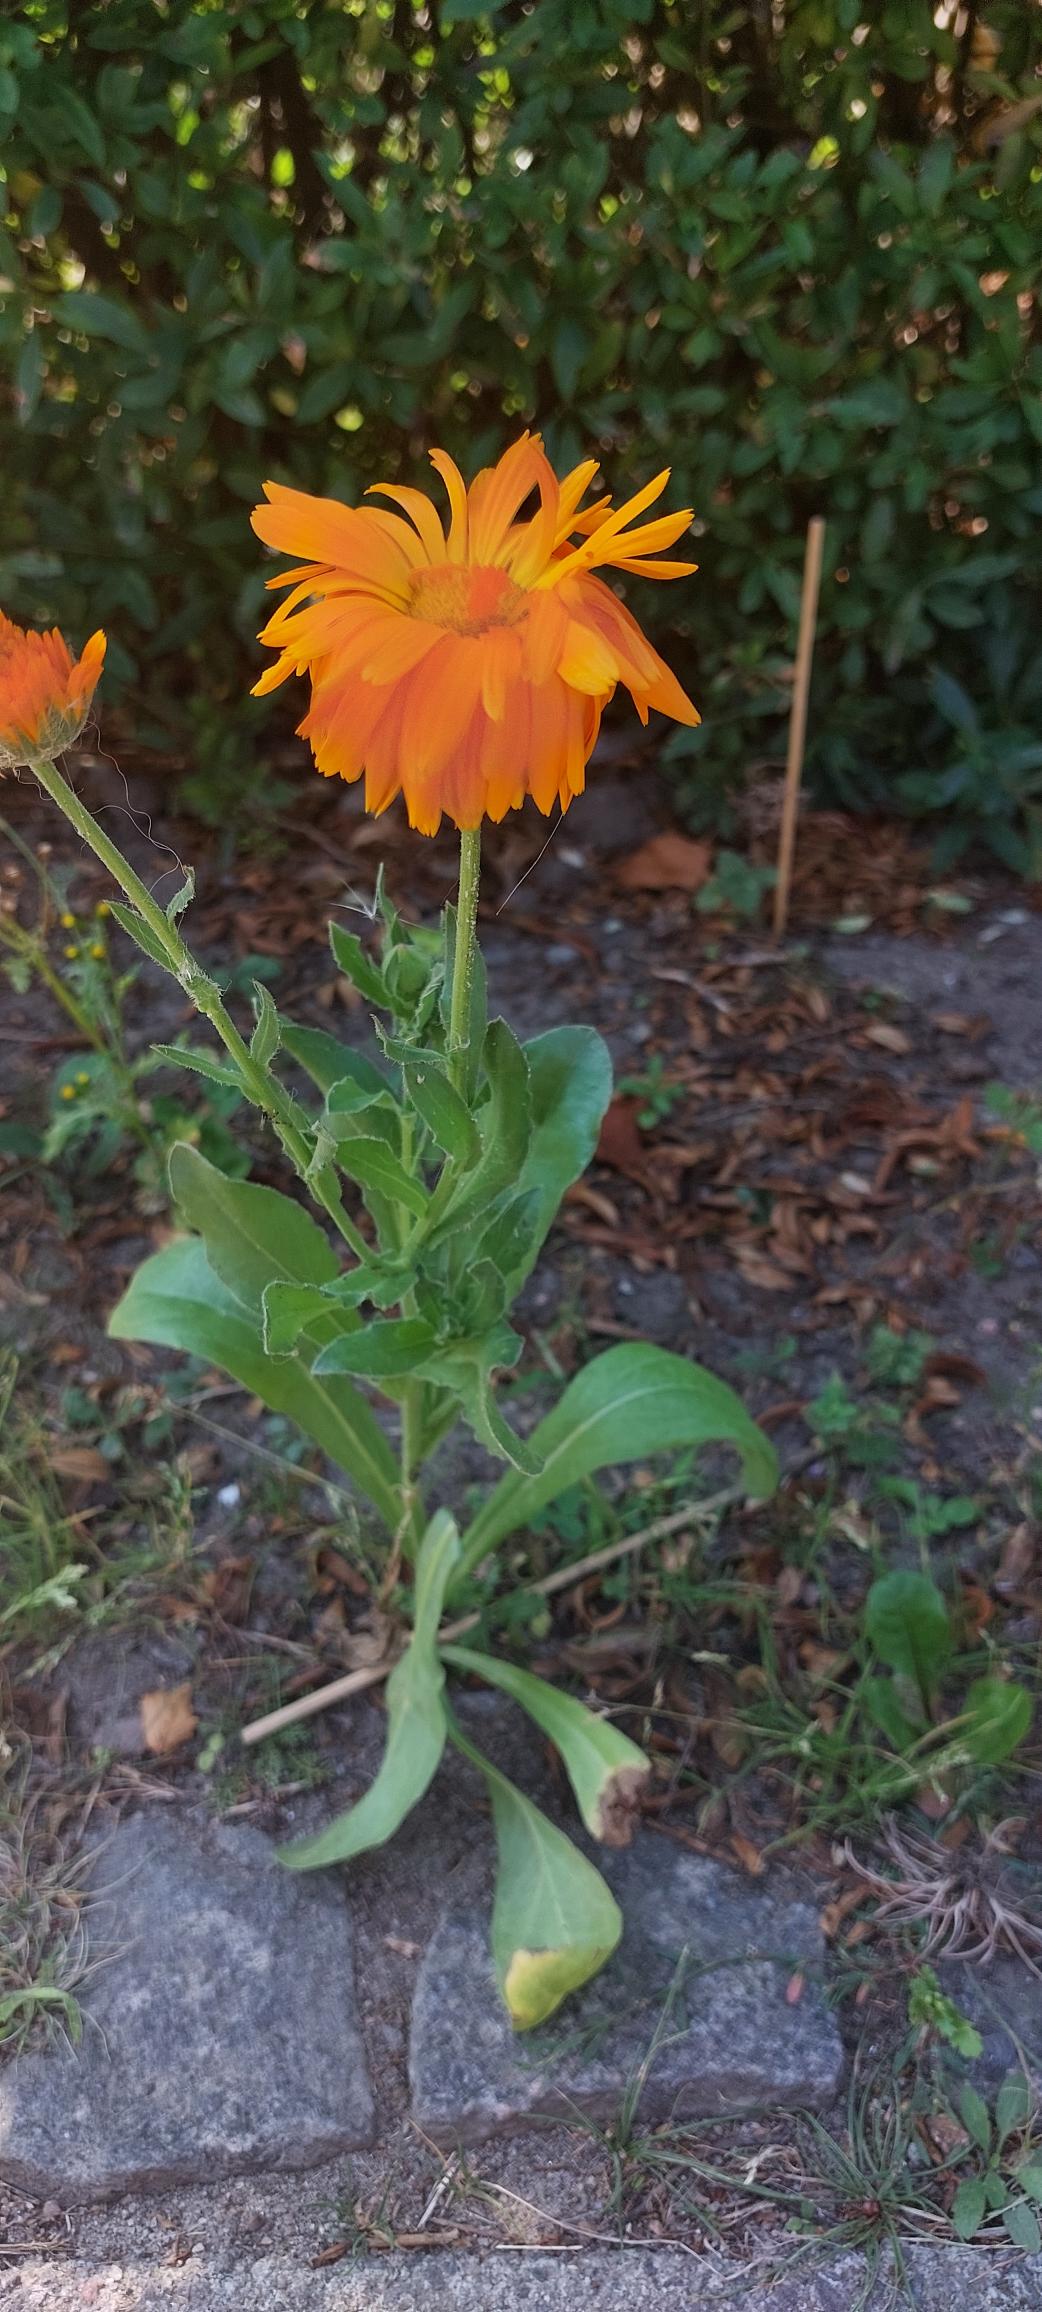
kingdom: Plantae
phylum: Tracheophyta
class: Magnoliopsida
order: Asterales
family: Asteraceae
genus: Calendula
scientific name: Calendula officinalis
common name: Have-morgenfrue
